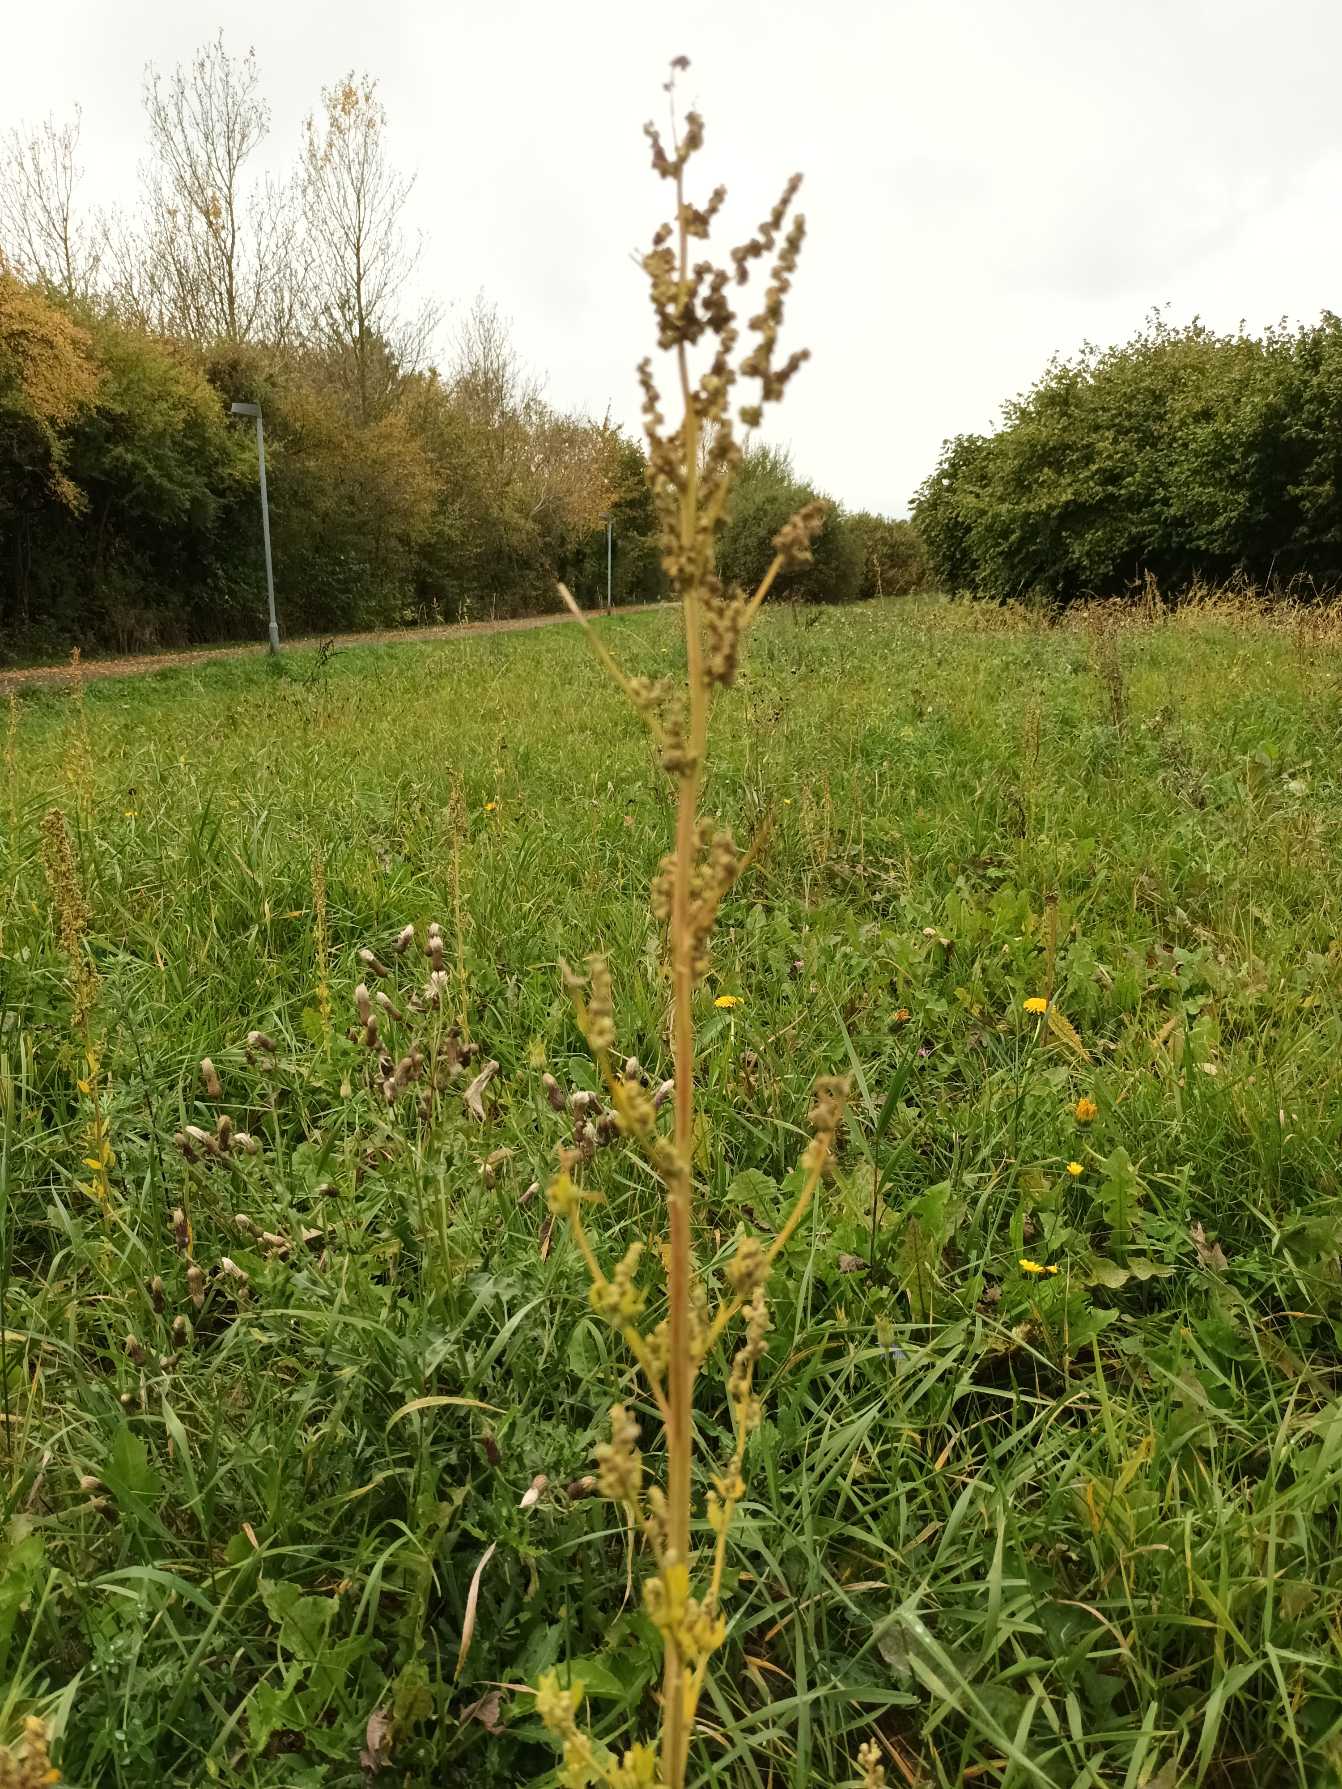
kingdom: Plantae
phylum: Tracheophyta
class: Magnoliopsida
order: Caryophyllales
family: Amaranthaceae
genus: Chenopodium
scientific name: Chenopodium album
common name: Hvidmelet gåsefod
